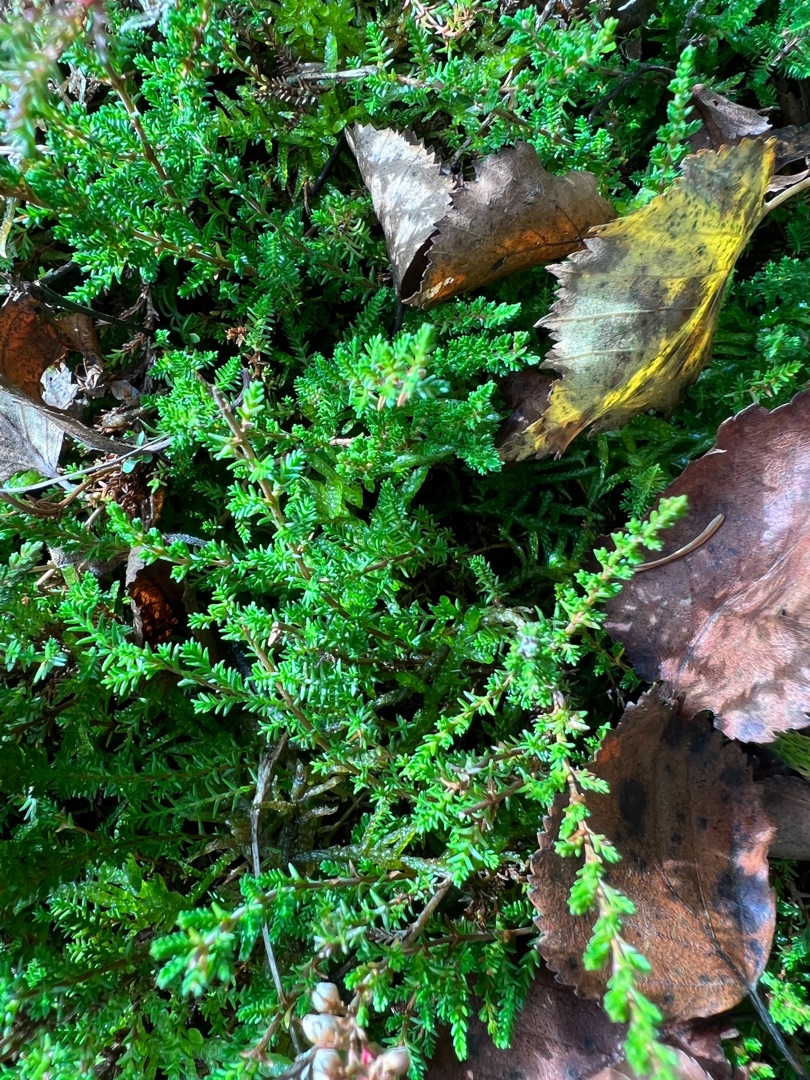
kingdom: Plantae
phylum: Tracheophyta
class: Magnoliopsida
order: Ericales
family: Ericaceae
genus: Calluna
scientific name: Calluna vulgaris
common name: Hedelyng
